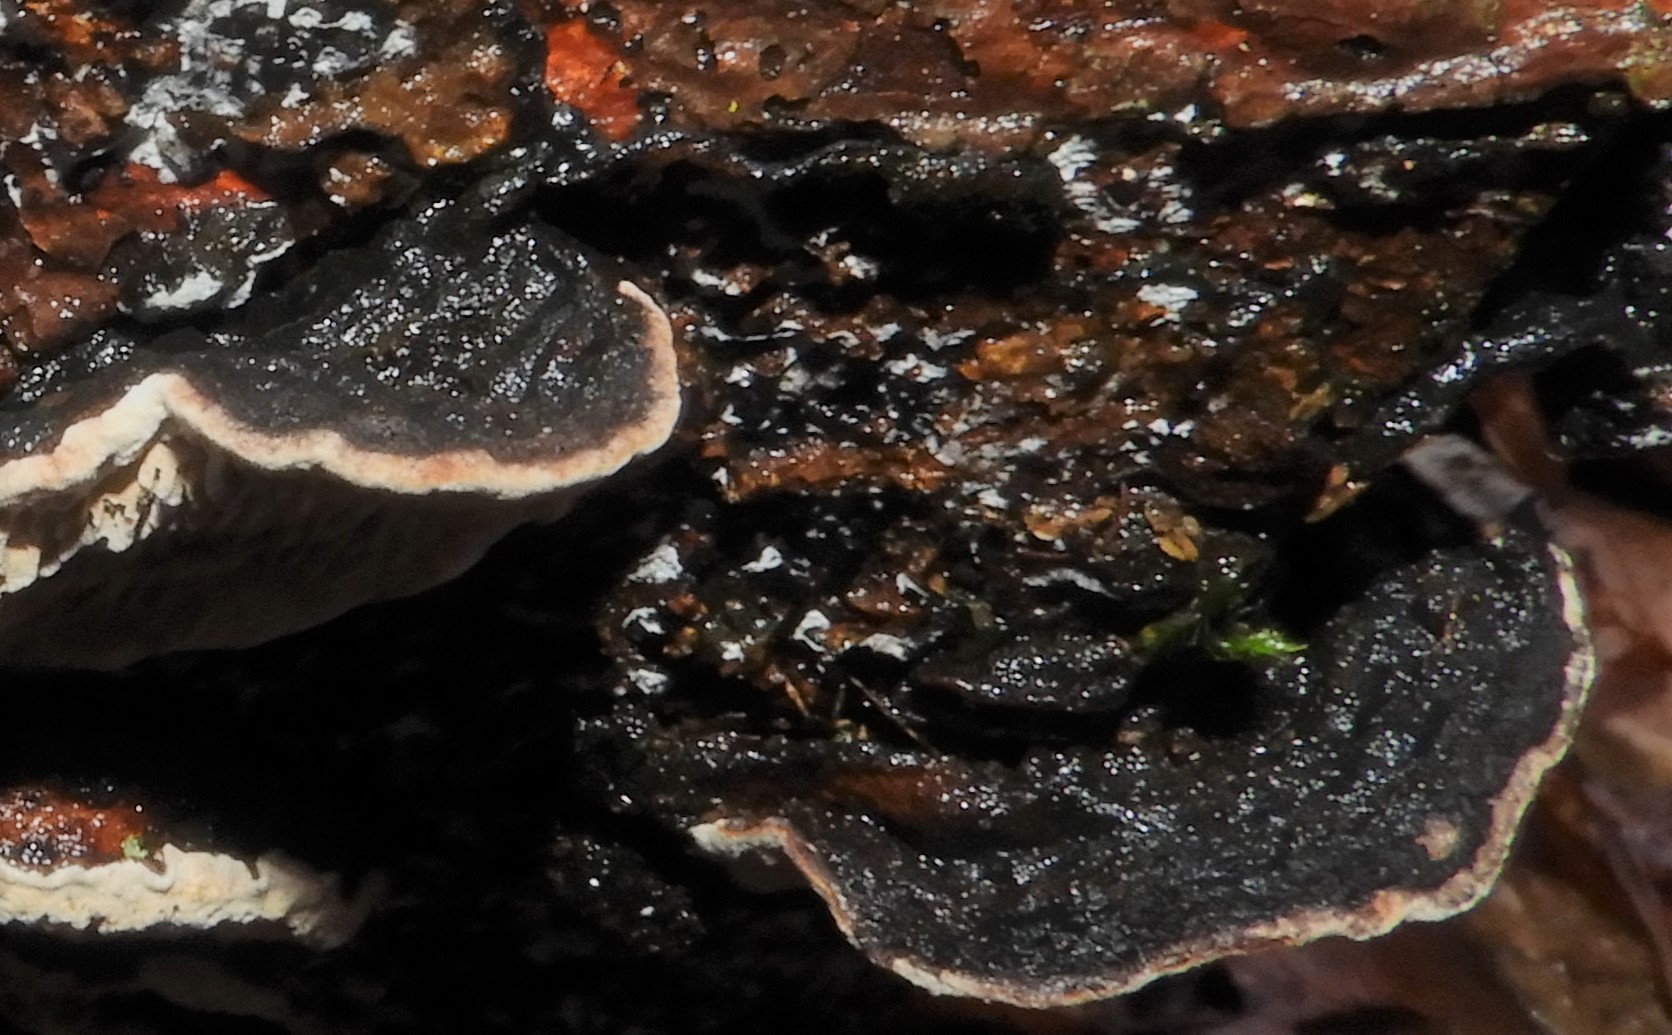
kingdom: Fungi
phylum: Basidiomycota
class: Agaricomycetes
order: Polyporales
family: Polyporaceae
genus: Podofomes
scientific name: Podofomes mollis
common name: blød begporesvamp
